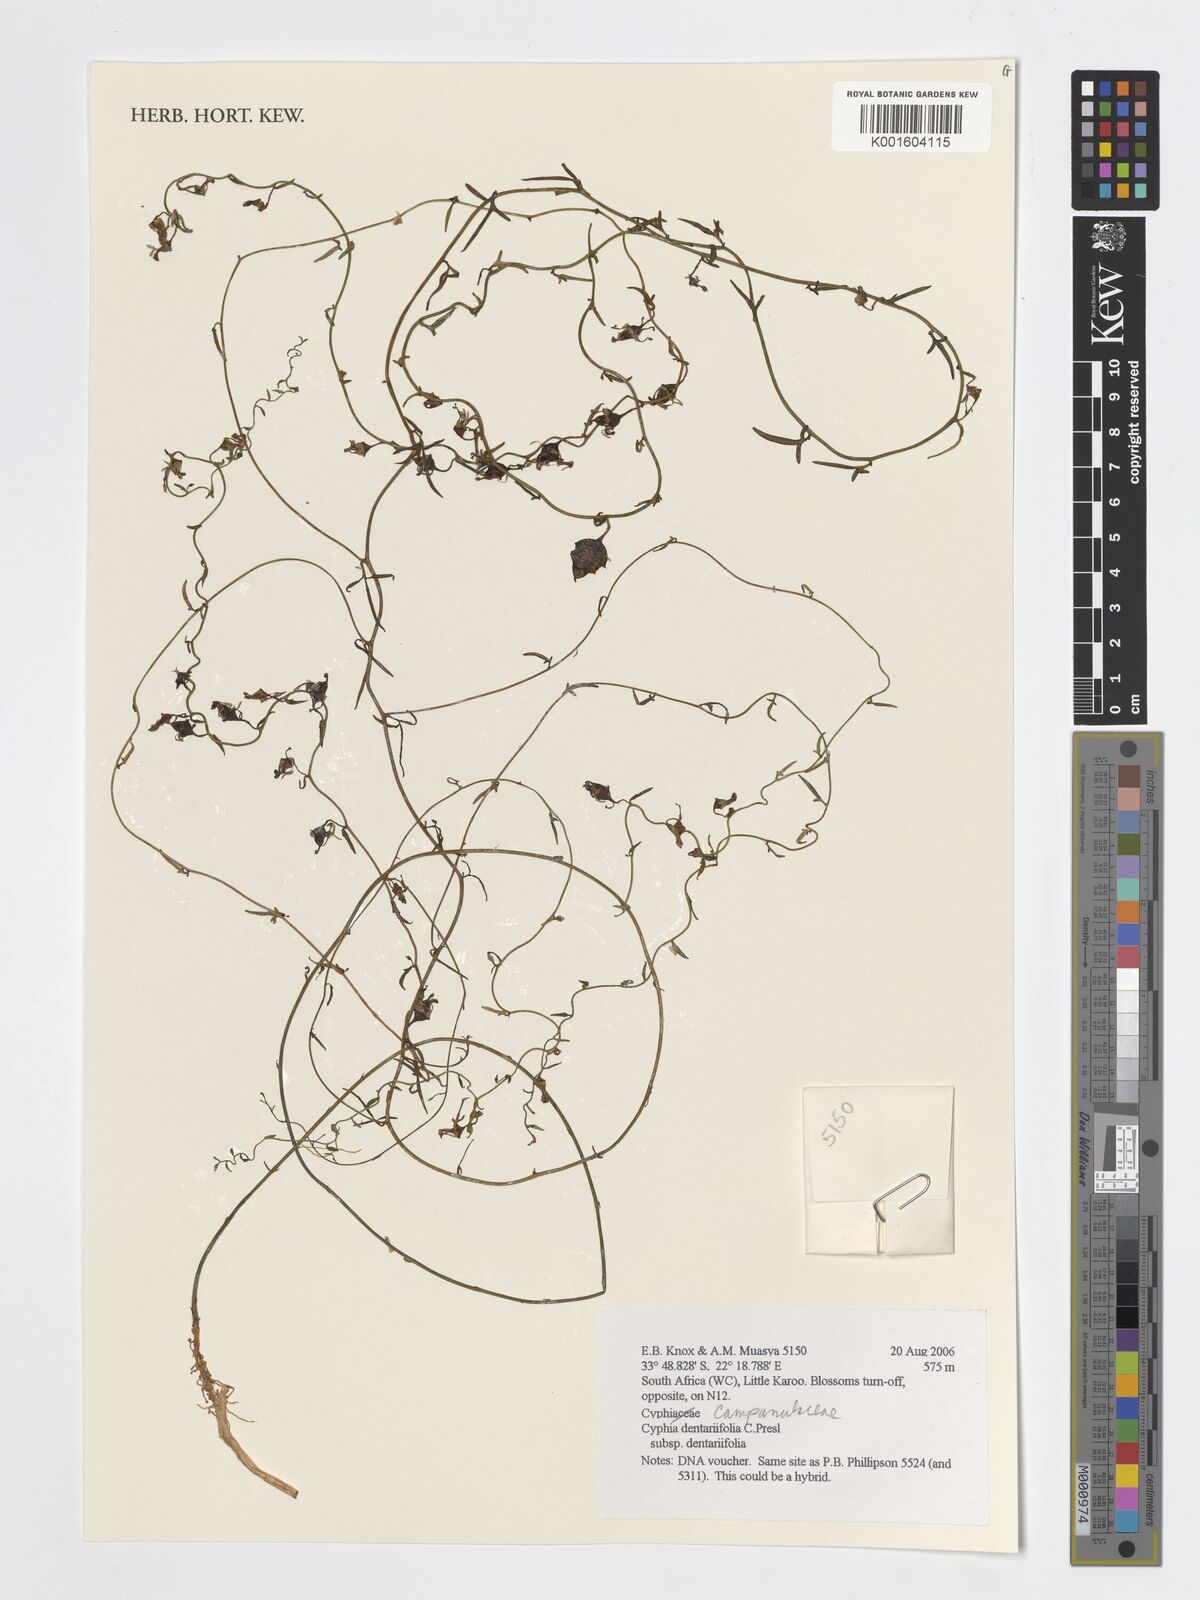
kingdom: Plantae
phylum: Tracheophyta
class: Magnoliopsida
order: Asterales
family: Campanulaceae
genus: Cyphia
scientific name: Cyphia digitata
